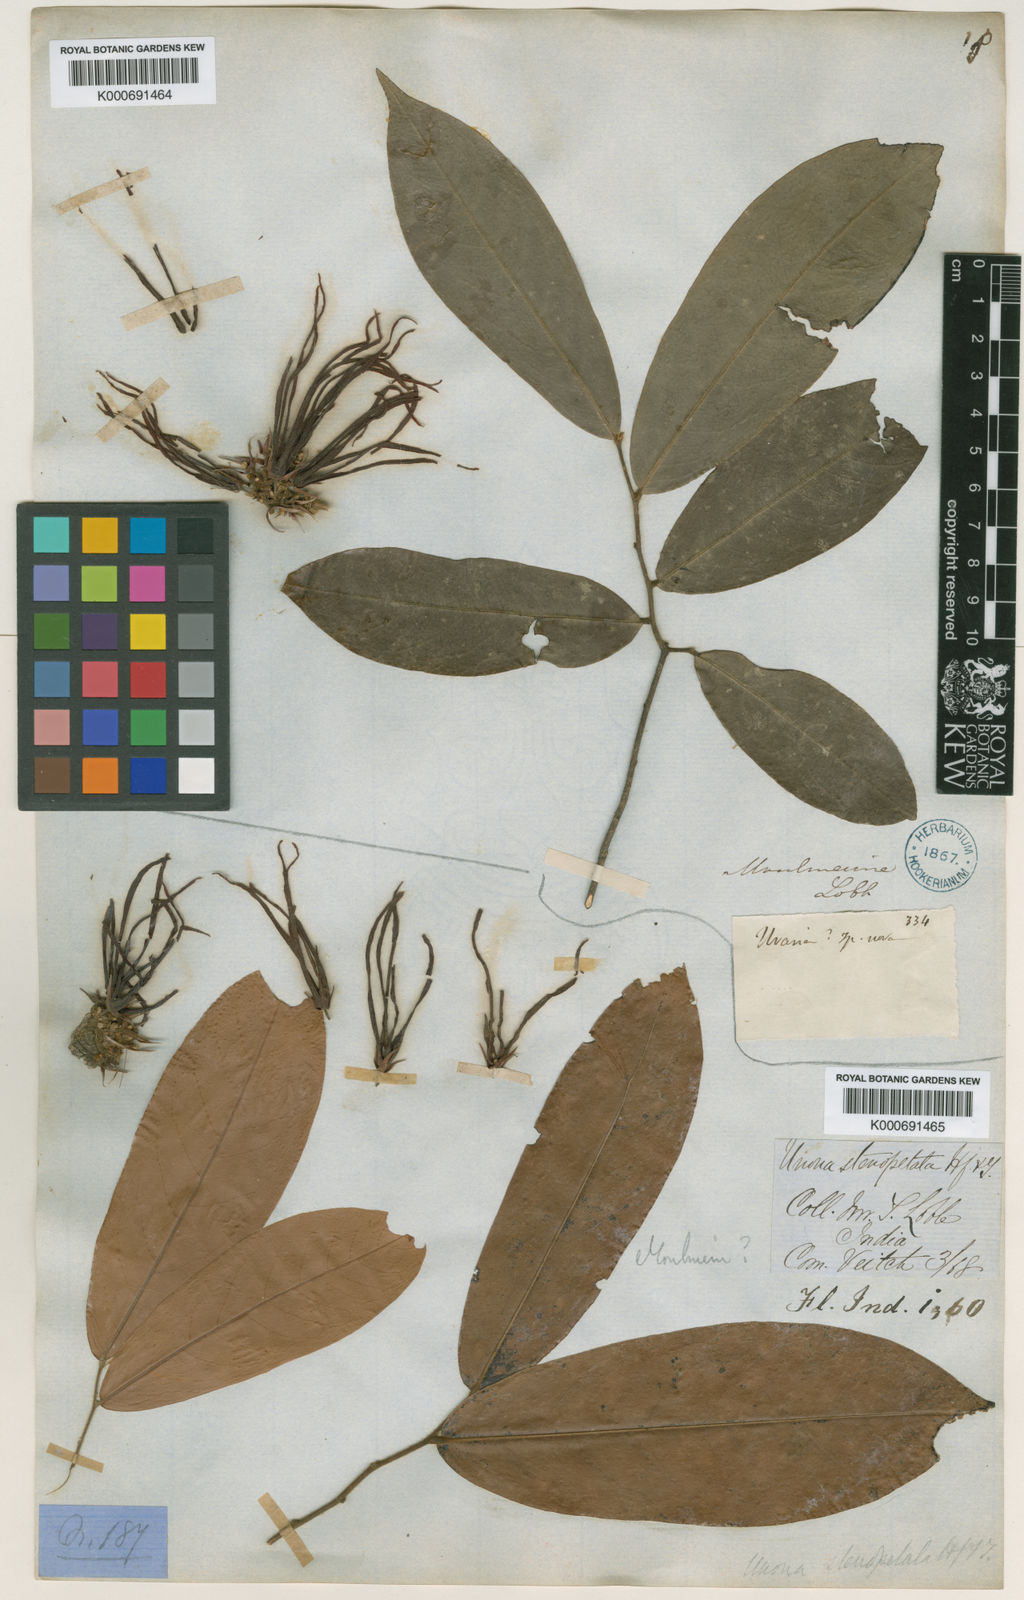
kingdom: Plantae
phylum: Tracheophyta
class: Magnoliopsida
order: Magnoliales
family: Annonaceae
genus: Polyalthia
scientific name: Polyalthia
